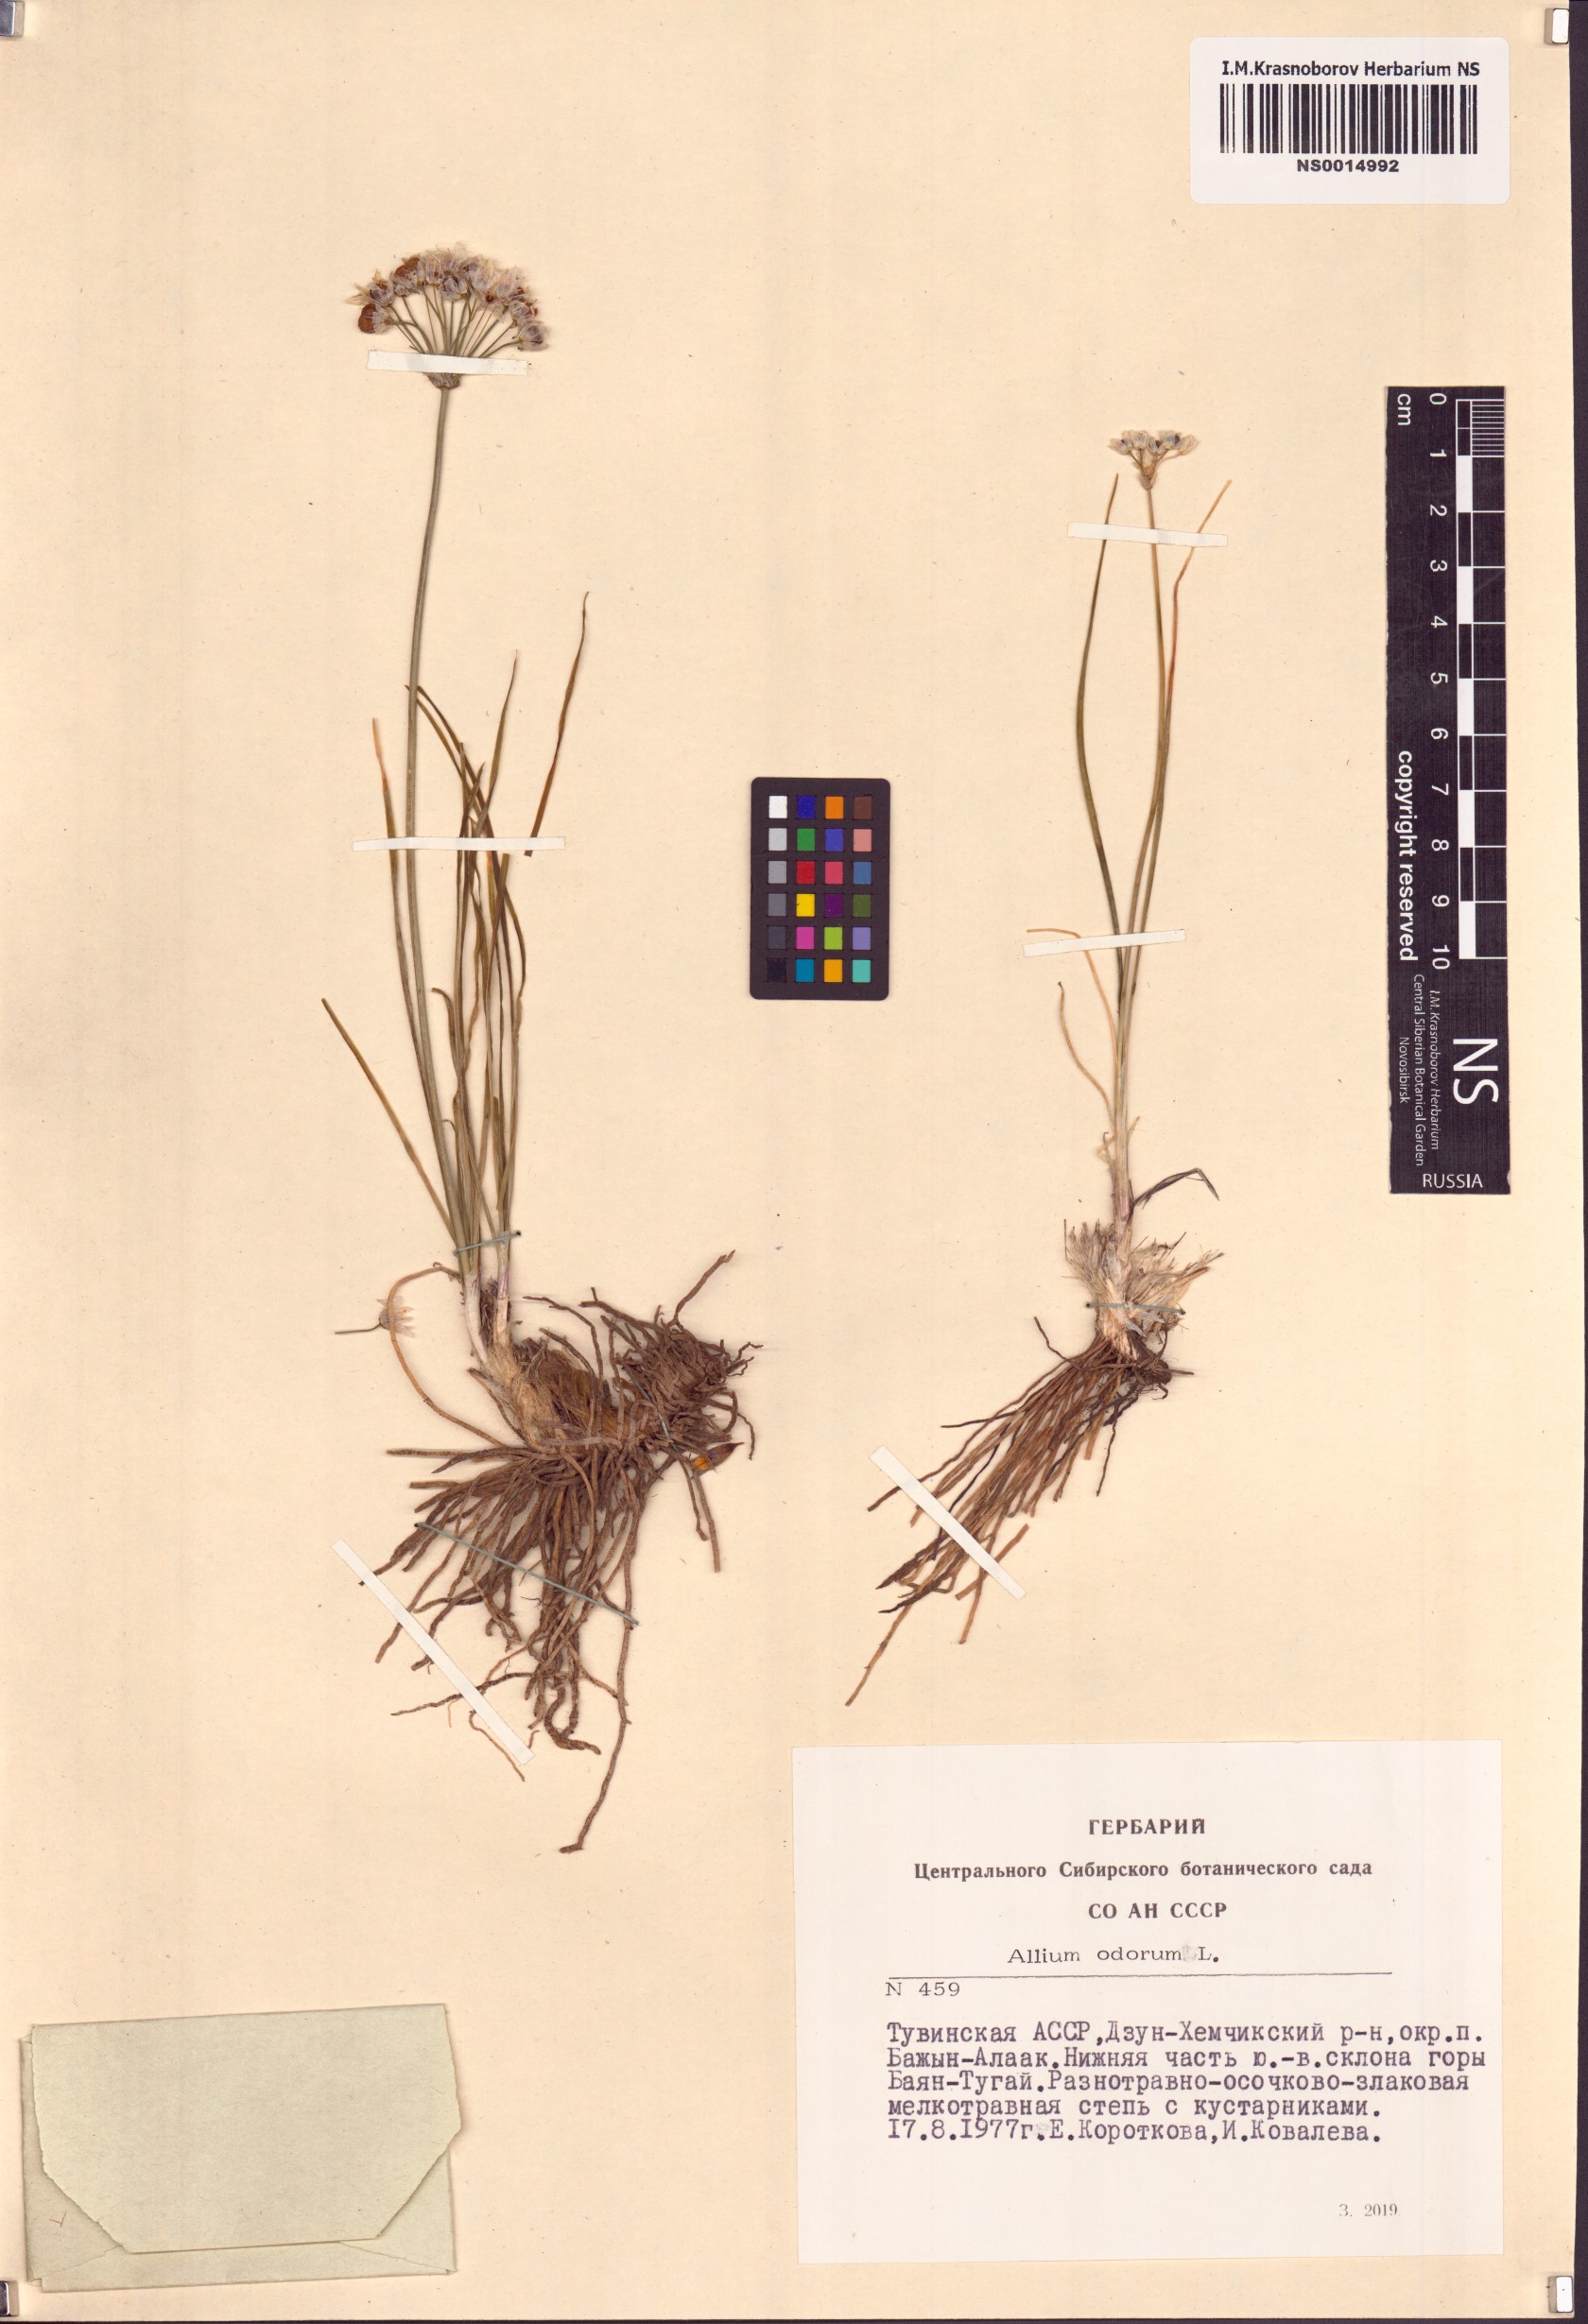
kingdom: Plantae
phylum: Tracheophyta
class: Liliopsida
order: Asparagales
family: Amaryllidaceae
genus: Allium
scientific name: Allium ramosum
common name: Fragrant garlic
